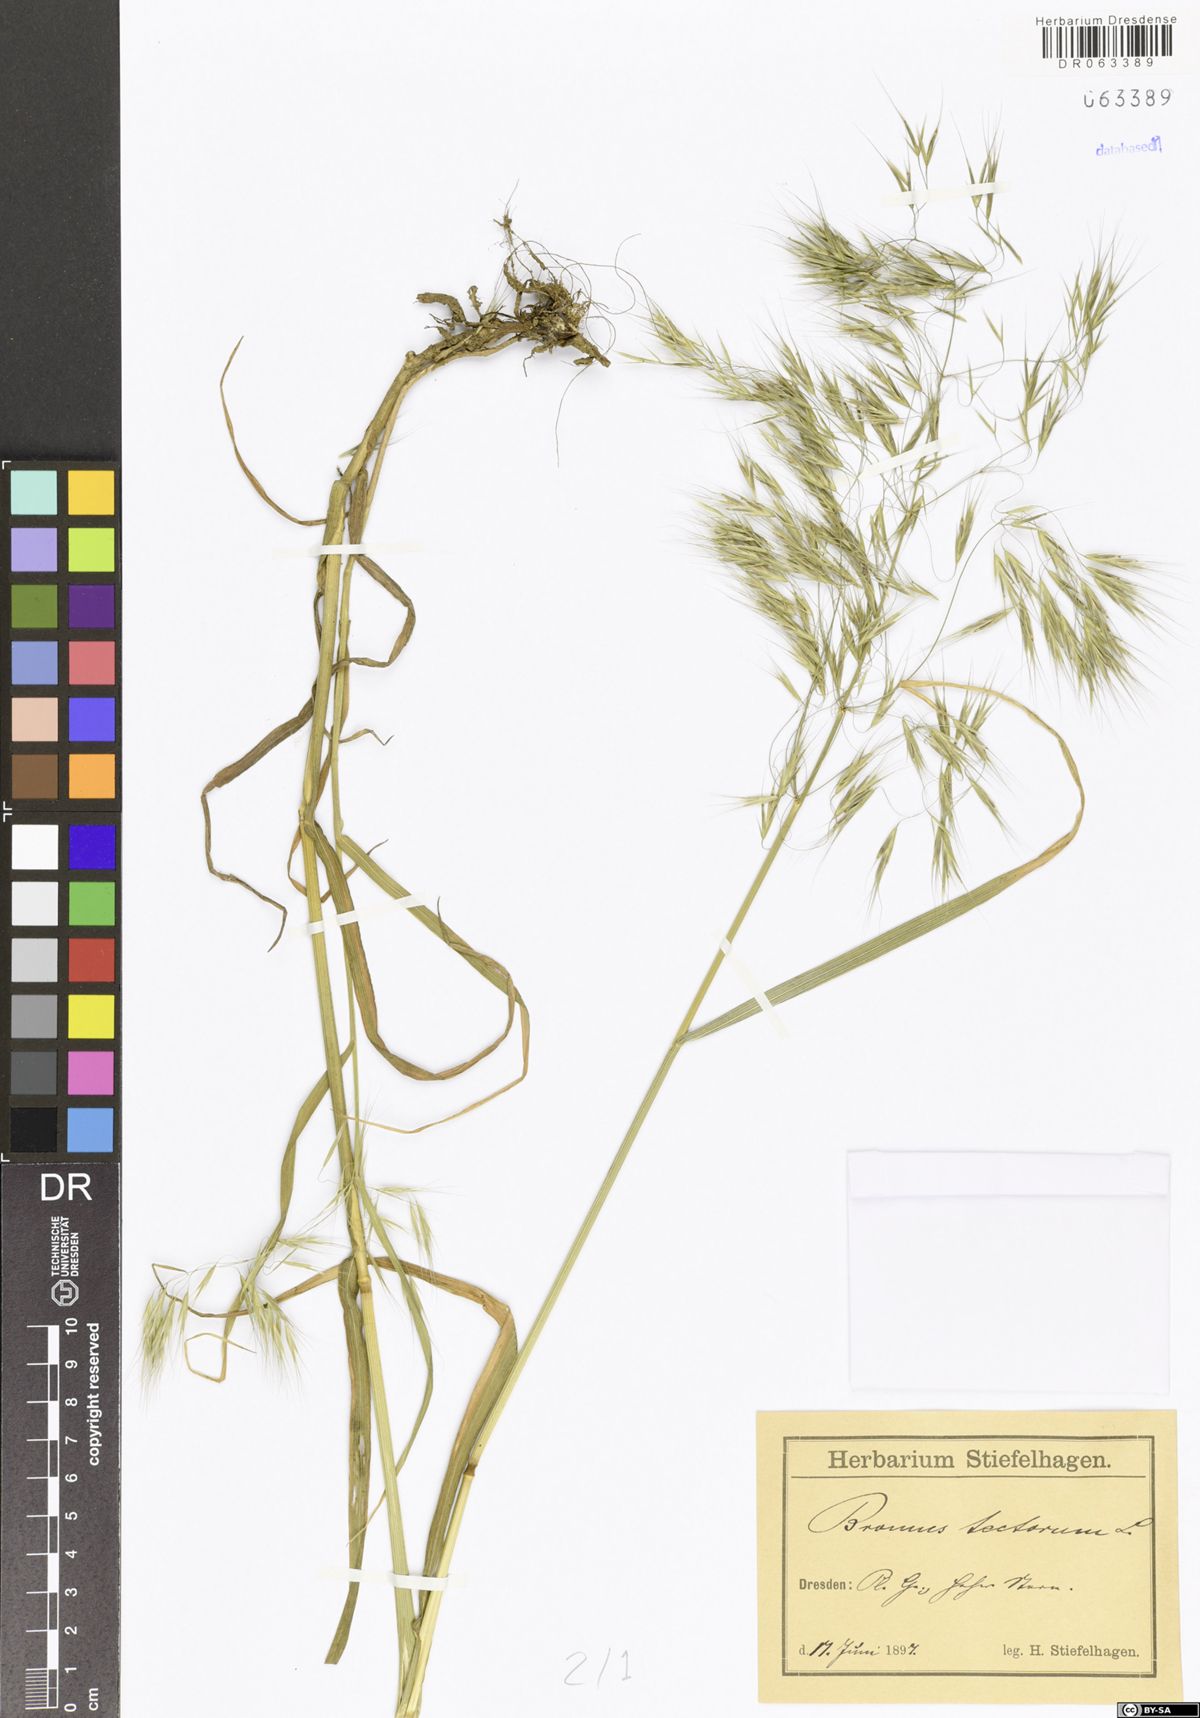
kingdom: Plantae
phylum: Tracheophyta
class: Liliopsida
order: Poales
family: Poaceae
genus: Bromus
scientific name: Bromus tectorum
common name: Cheatgrass
